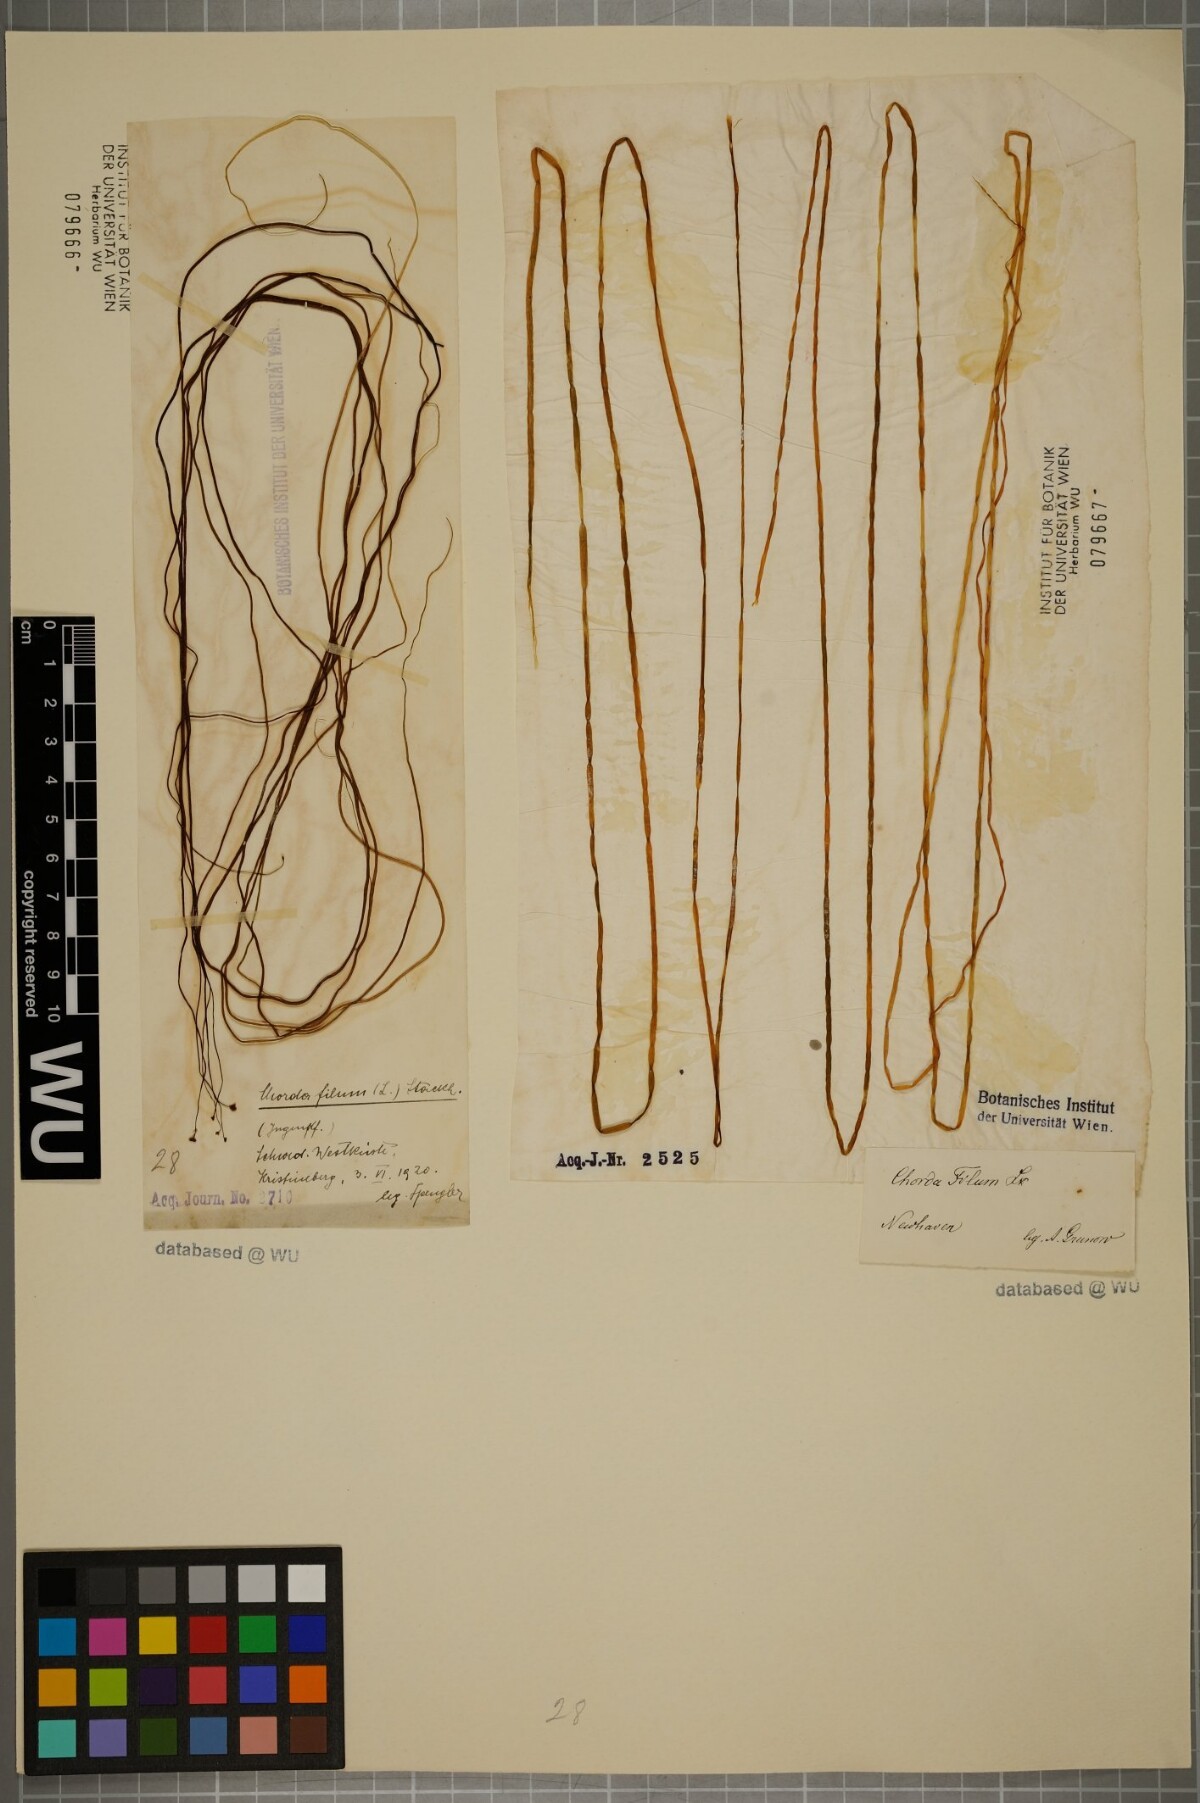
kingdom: Chromista
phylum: Ochrophyta
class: Phaeophyceae
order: Laminariales
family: Chordaceae
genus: Chorda
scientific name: Chorda filum
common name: Mermaid's tresses
